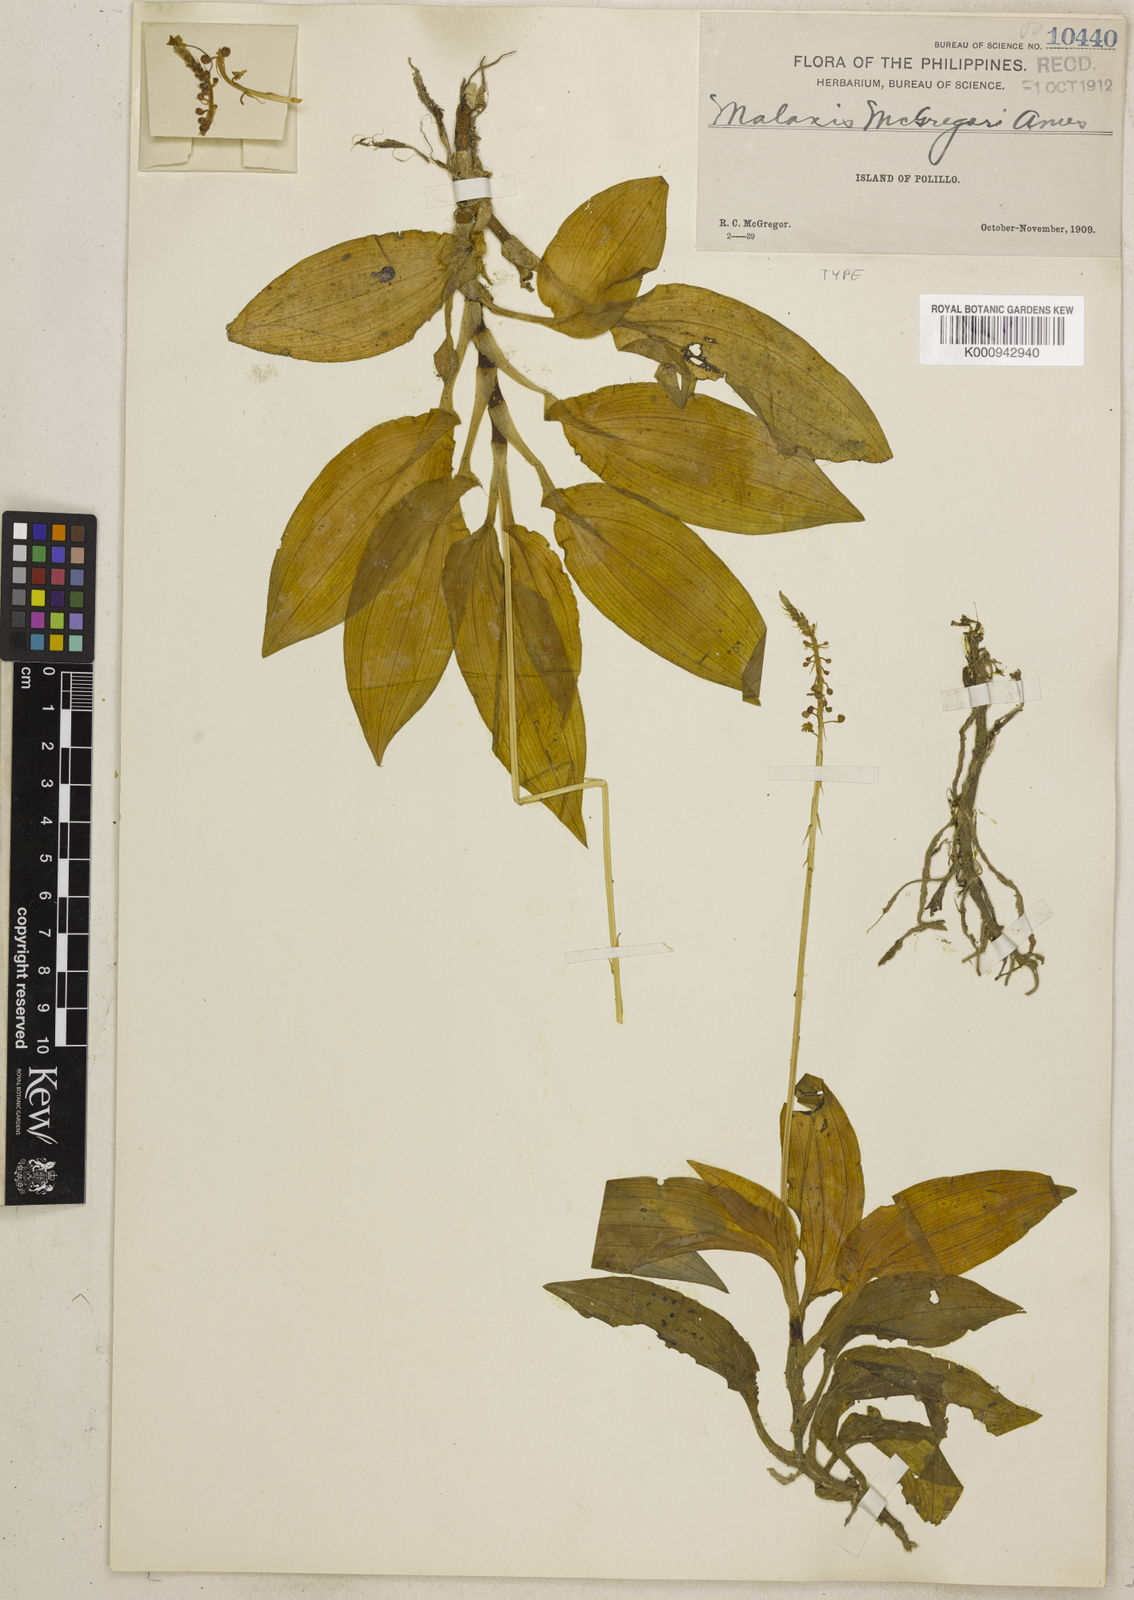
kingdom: Plantae
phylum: Tracheophyta
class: Liliopsida
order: Asparagales
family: Orchidaceae
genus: Crepidium
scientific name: Crepidium bancanoides
